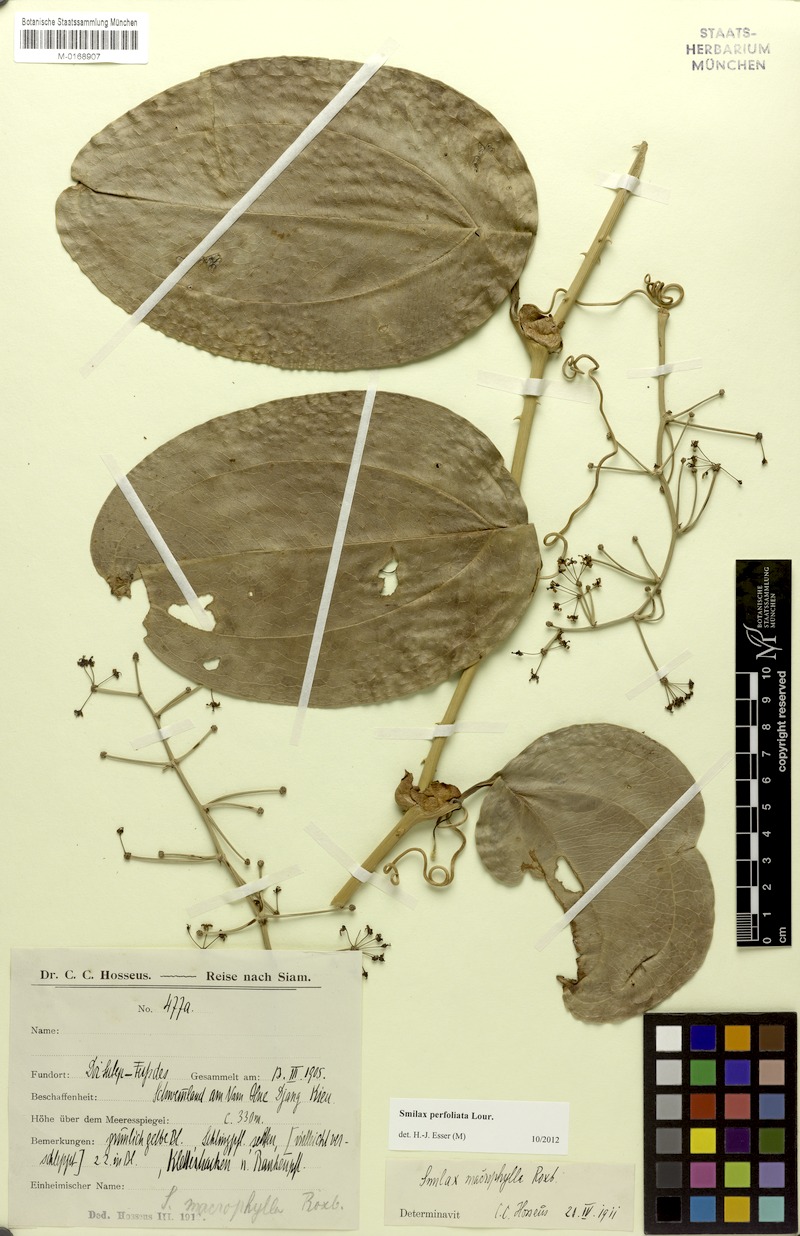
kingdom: Plantae
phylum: Tracheophyta
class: Liliopsida
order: Liliales
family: Smilacaceae
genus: Smilax
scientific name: Smilax perfoliata
